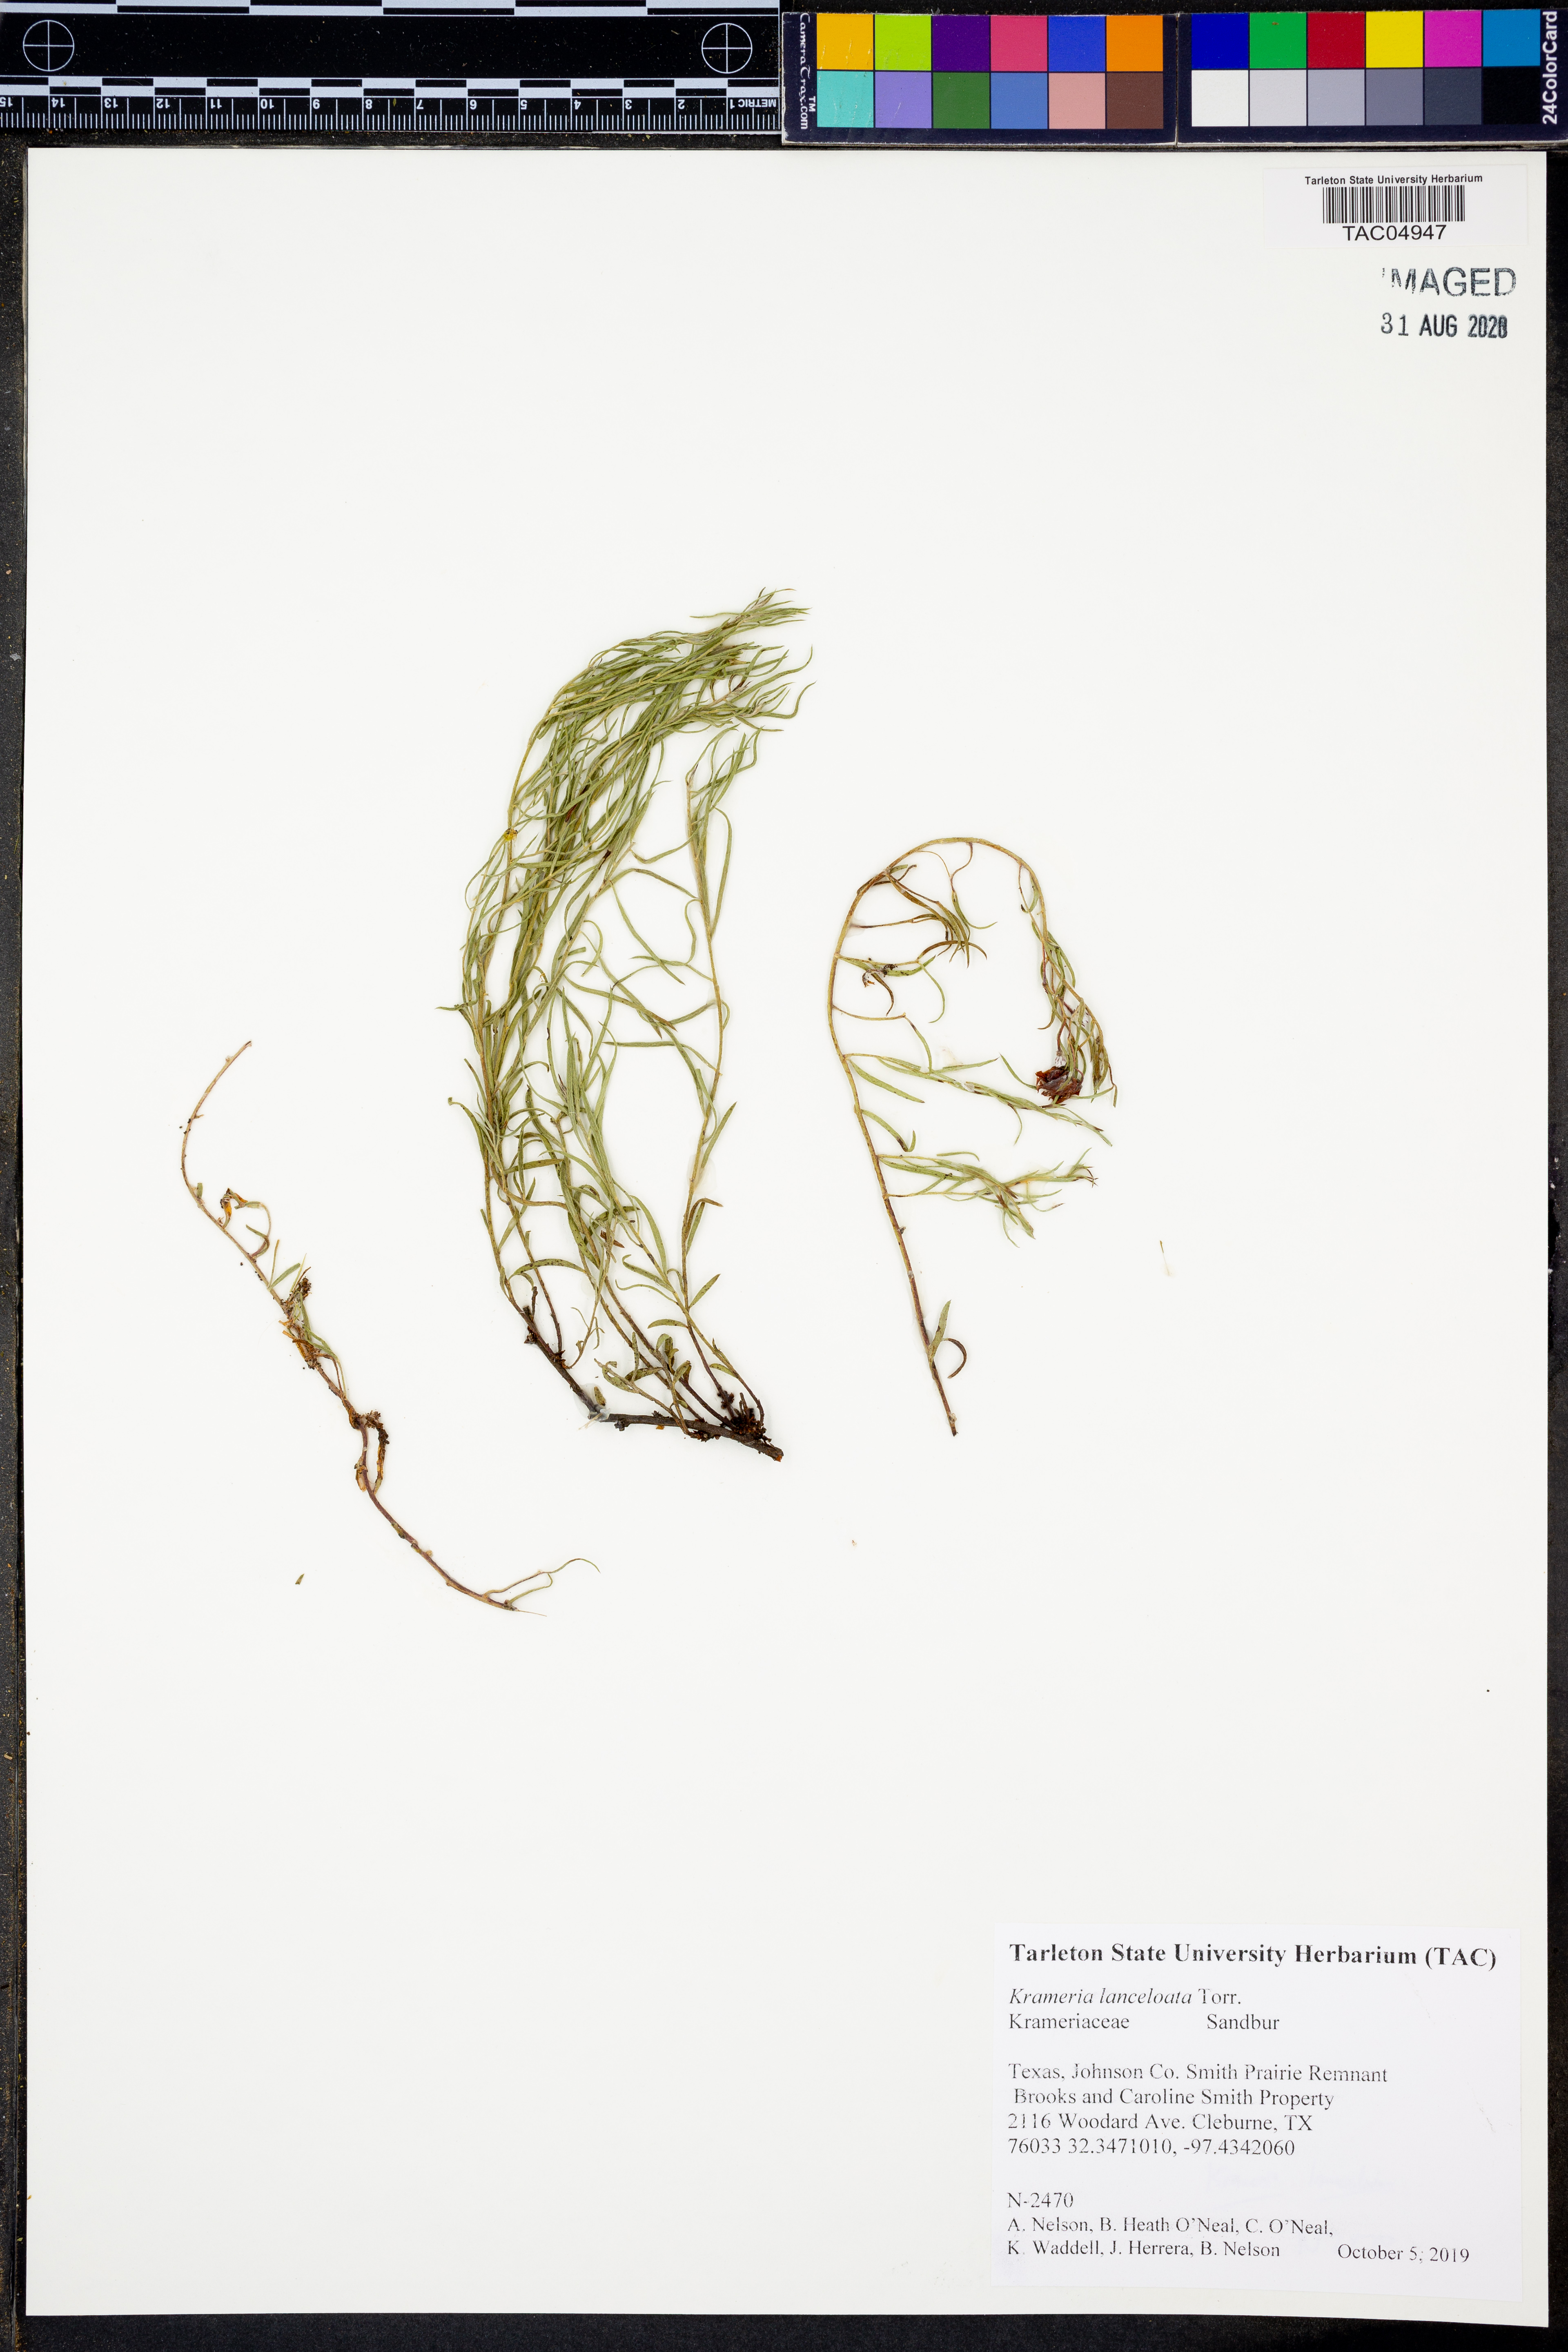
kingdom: Plantae
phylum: Tracheophyta
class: Magnoliopsida
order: Zygophyllales
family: Krameriaceae
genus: Krameria
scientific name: Krameria lanceolata
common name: Ratany
